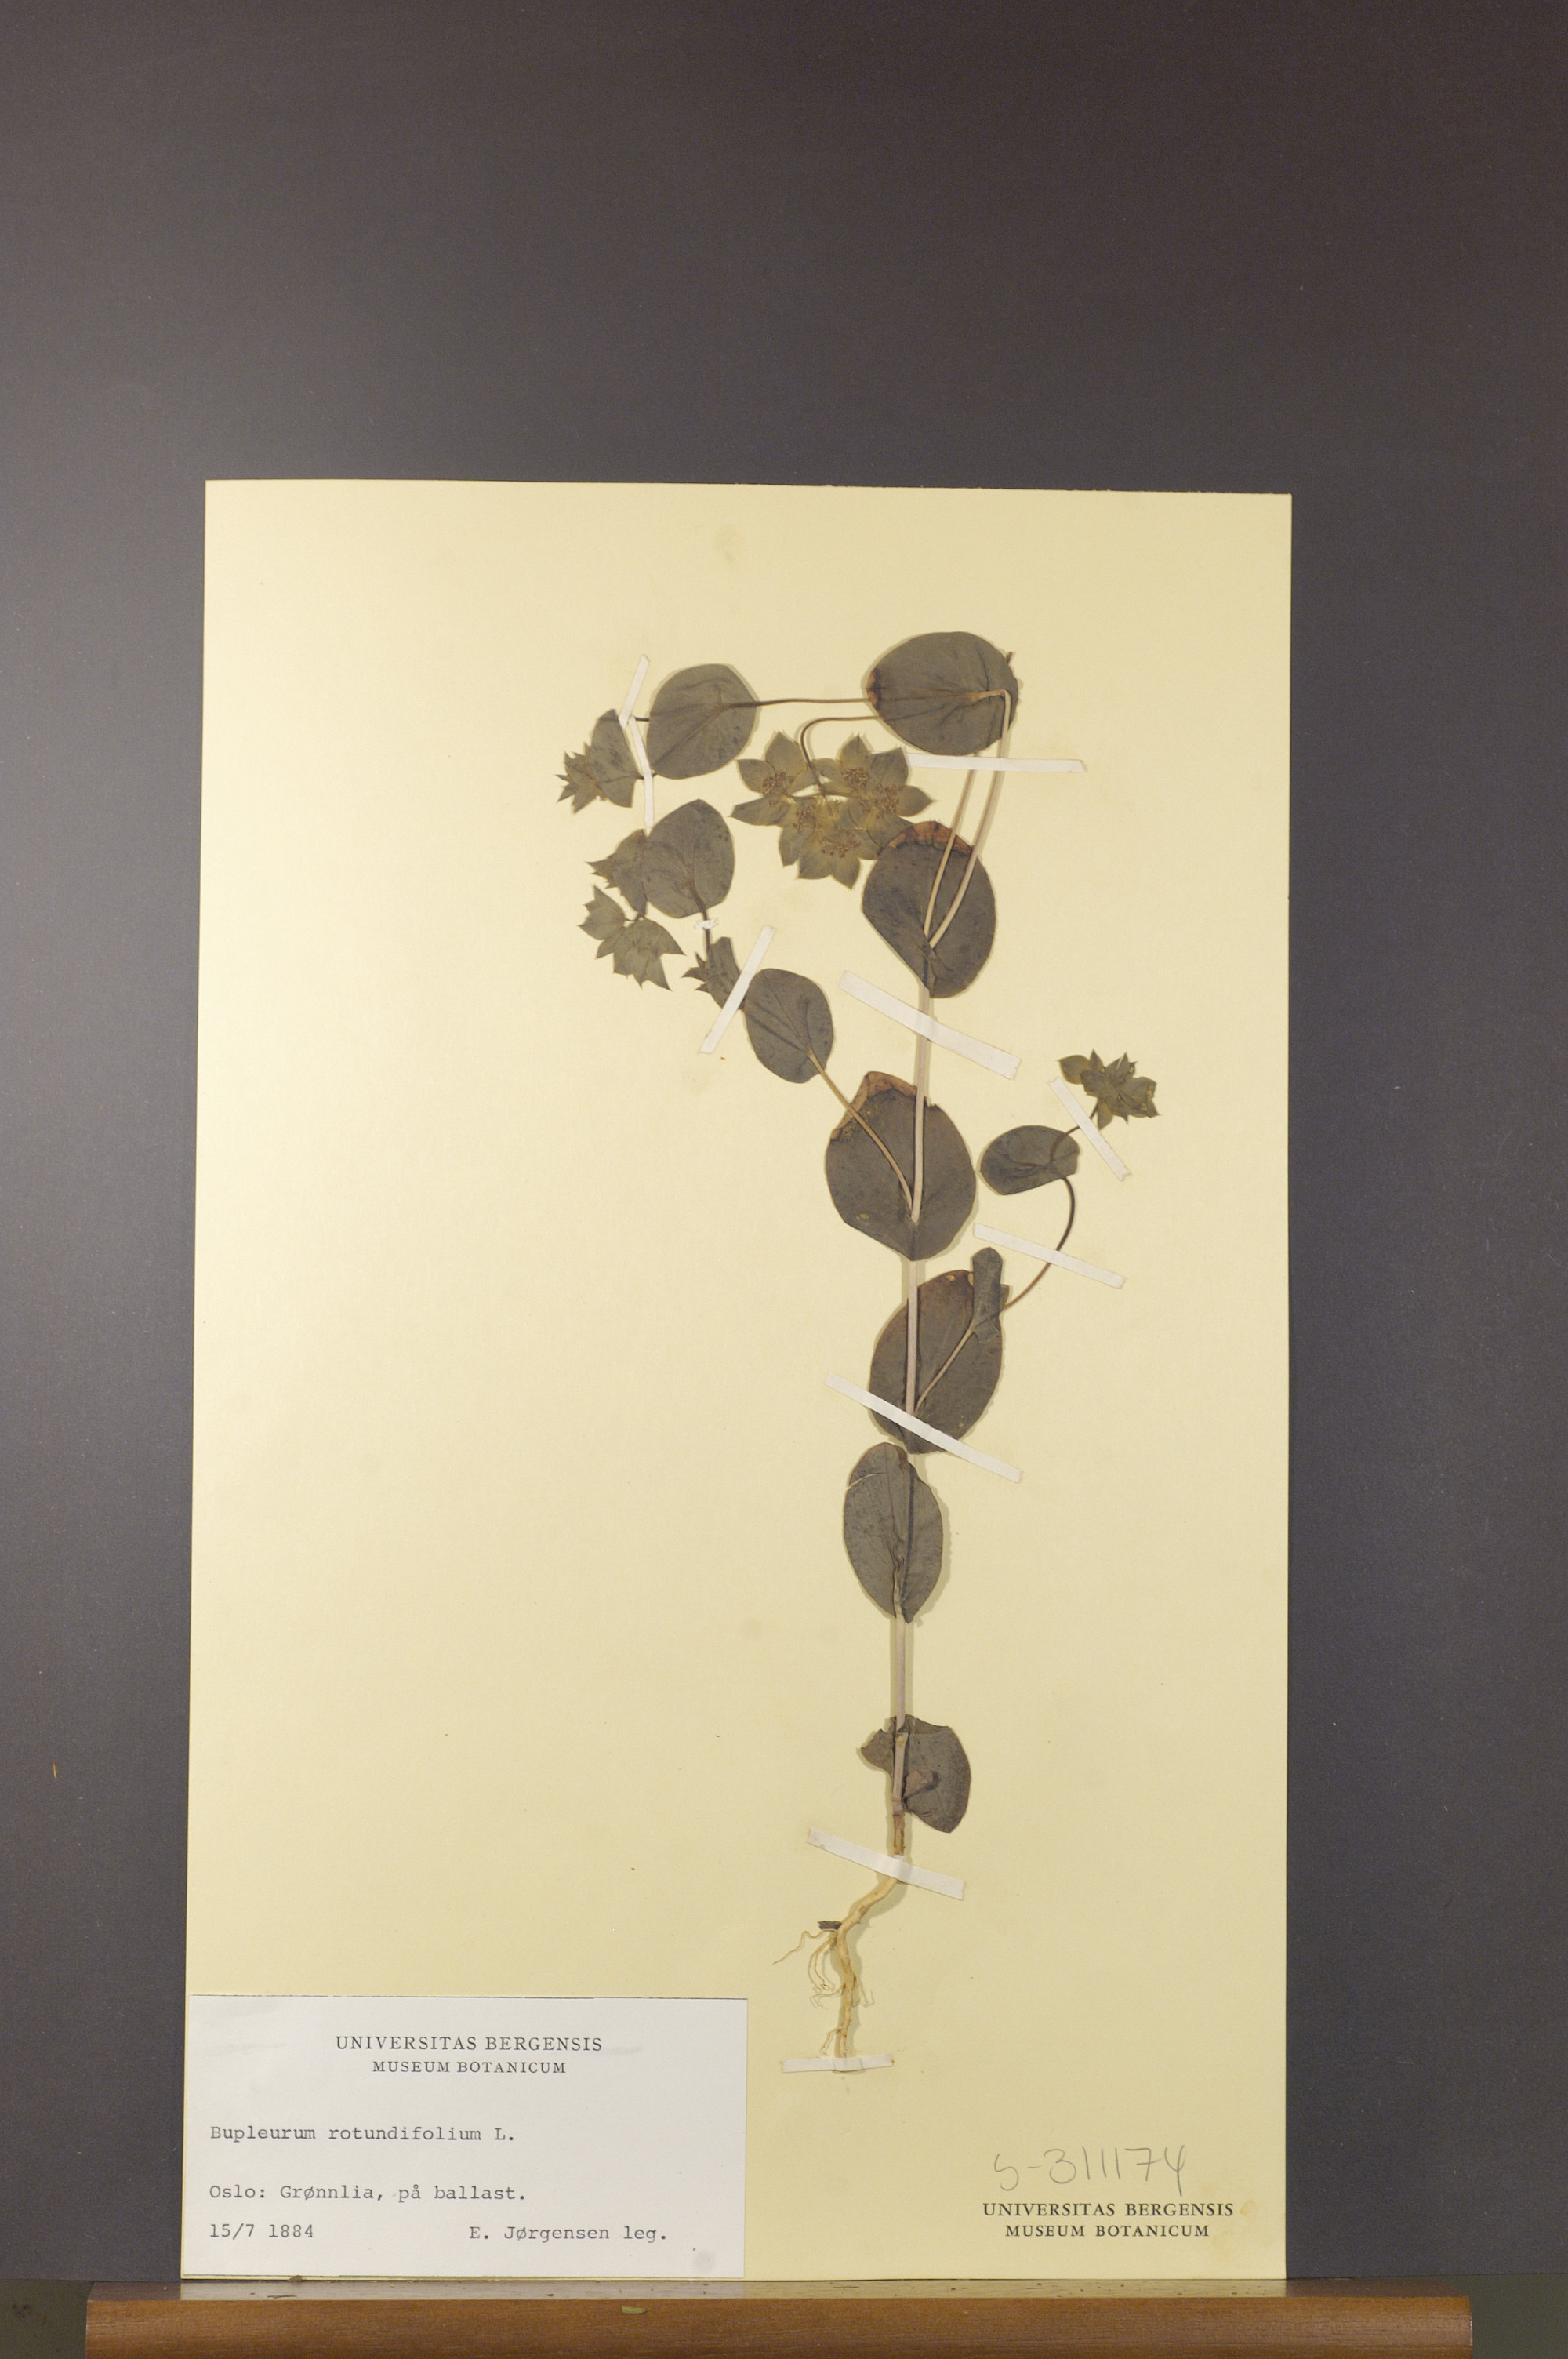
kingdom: Plantae
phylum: Tracheophyta
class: Magnoliopsida
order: Apiales
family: Apiaceae
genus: Bupleurum
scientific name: Bupleurum rotundifolium
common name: Thorow-wax
